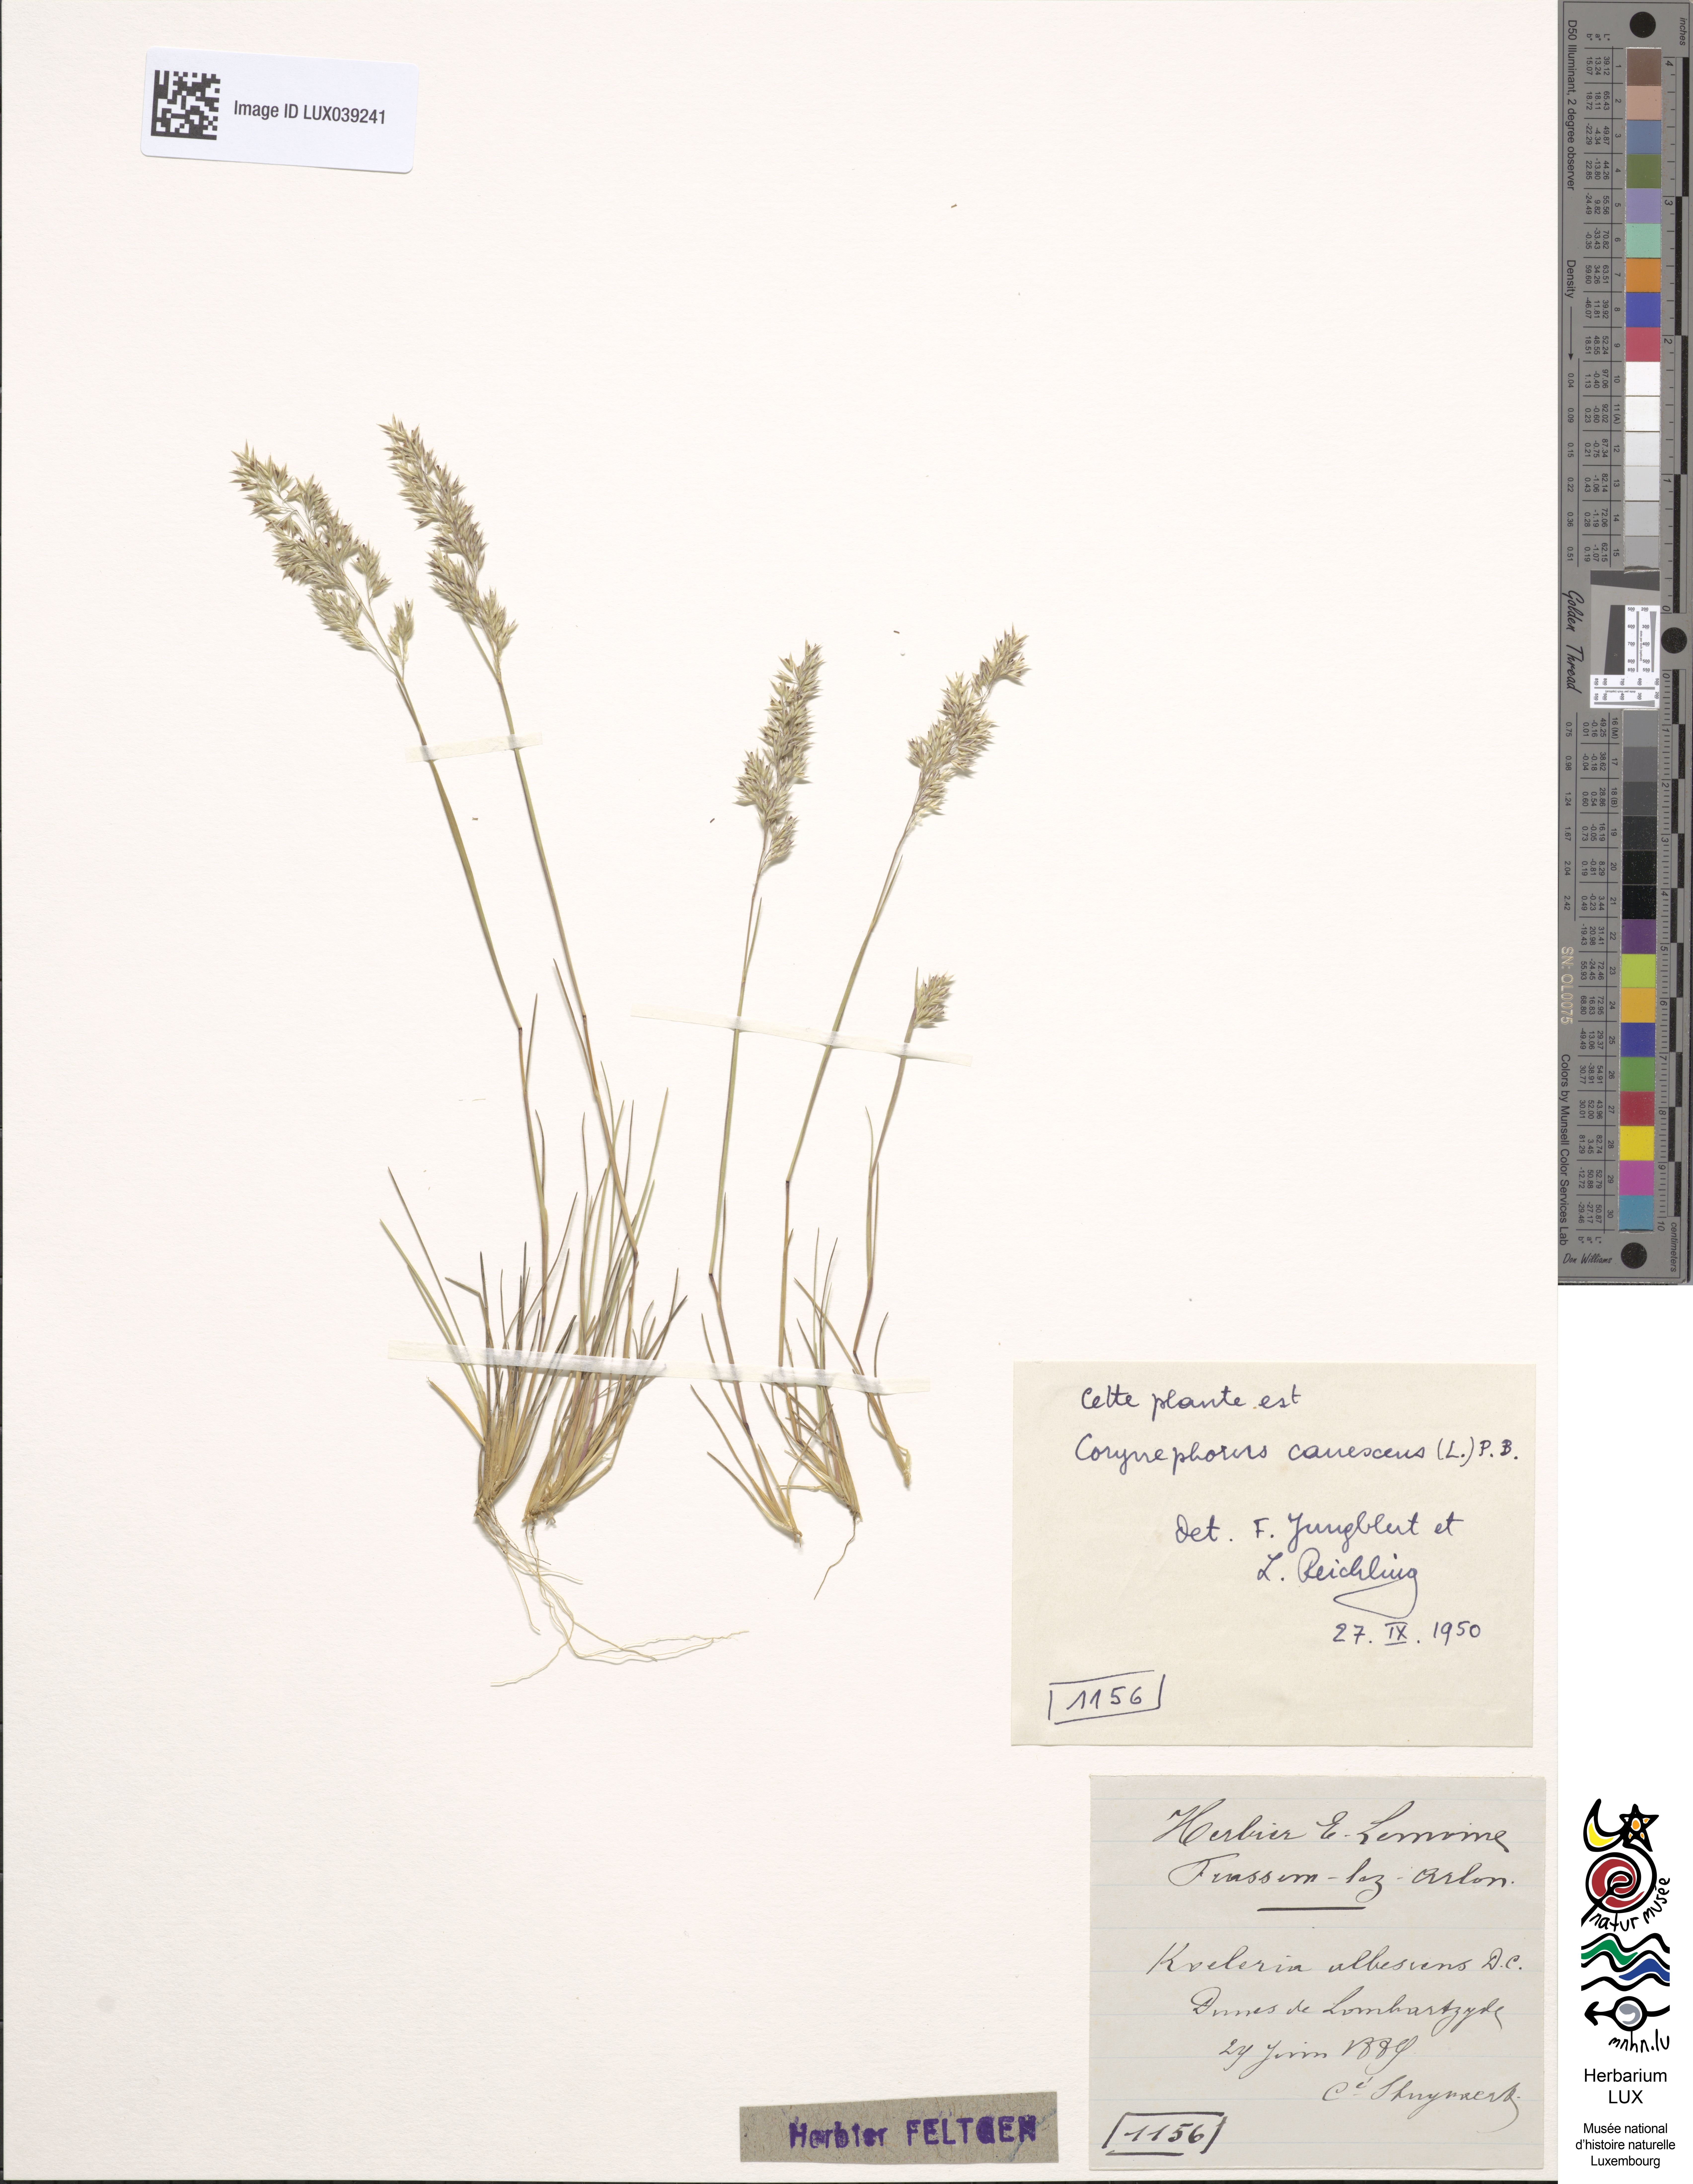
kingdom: Plantae
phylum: Tracheophyta
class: Liliopsida
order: Poales
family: Poaceae
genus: Corynephorus
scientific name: Corynephorus canescens
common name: Grey hair-grass
